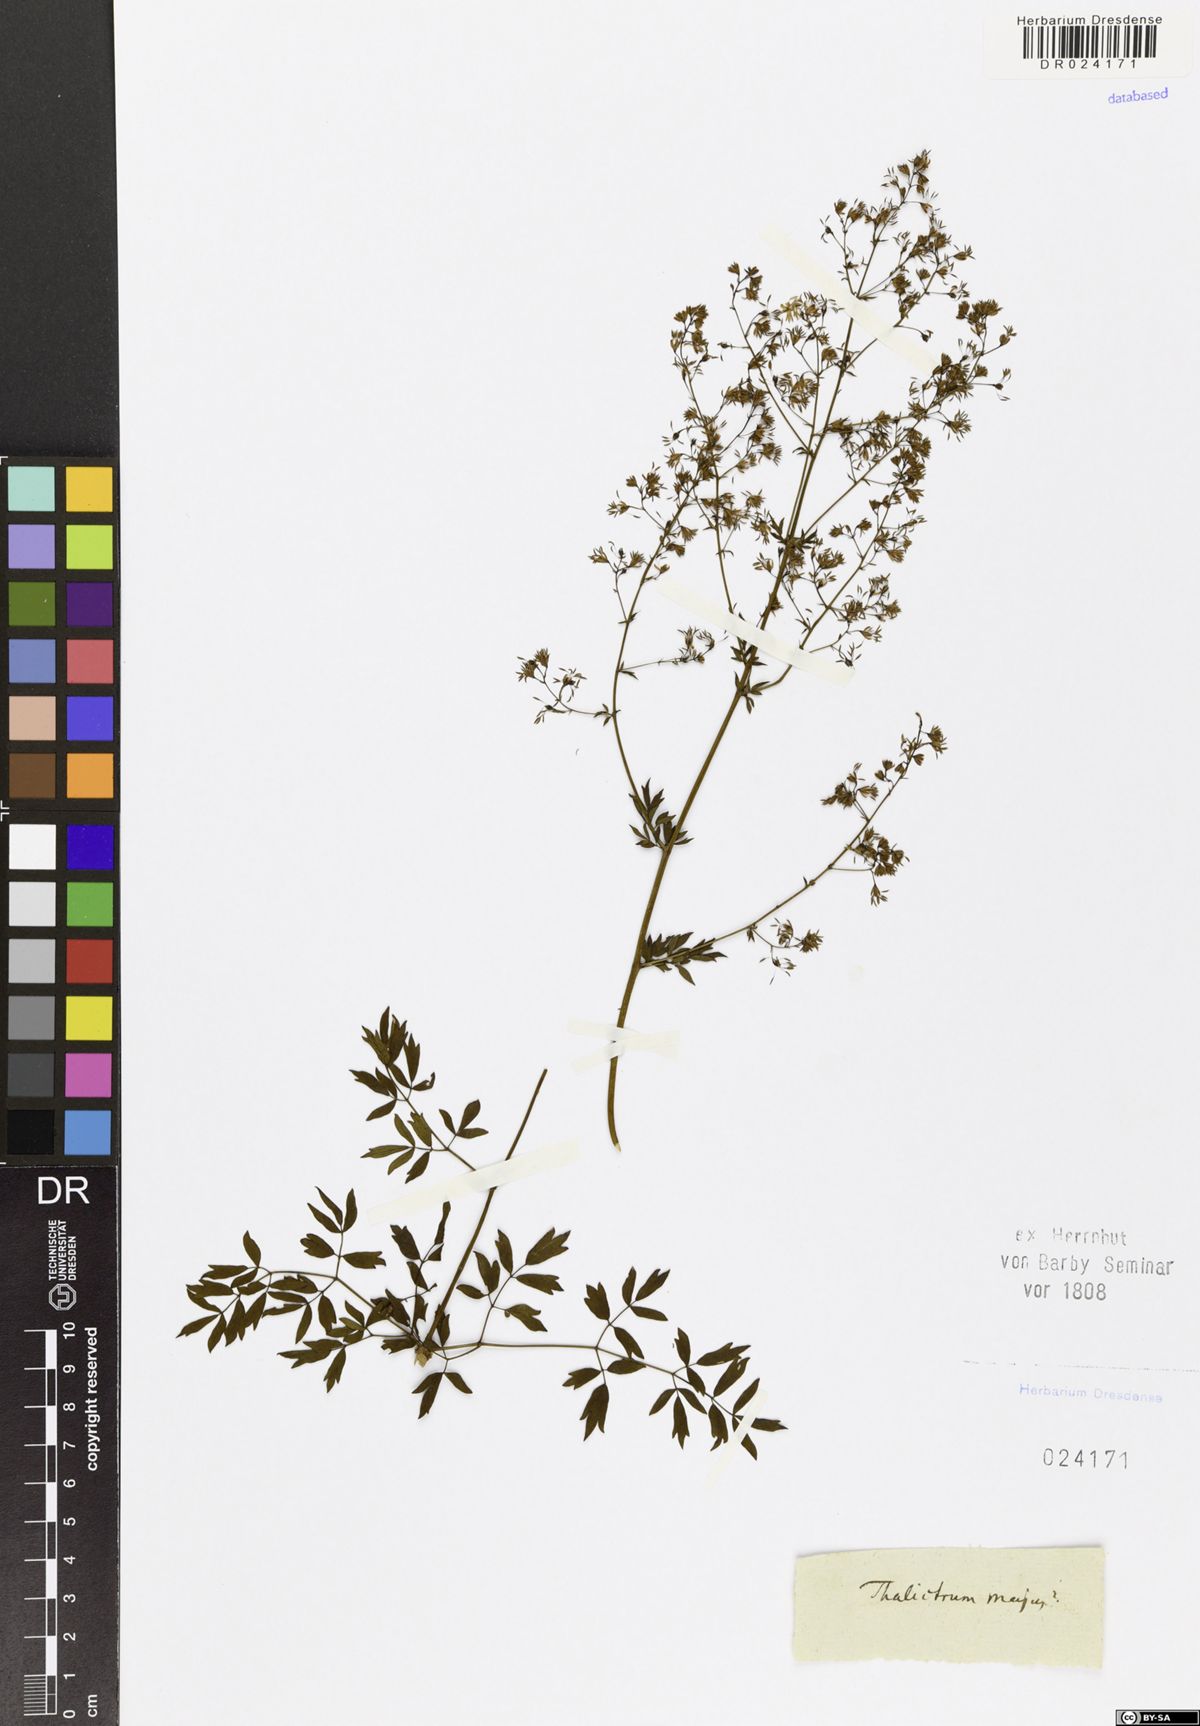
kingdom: Plantae
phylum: Tracheophyta
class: Magnoliopsida
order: Ranunculales
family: Ranunculaceae
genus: Thalictrum
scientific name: Thalictrum minus
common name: Lesser meadow-rue
